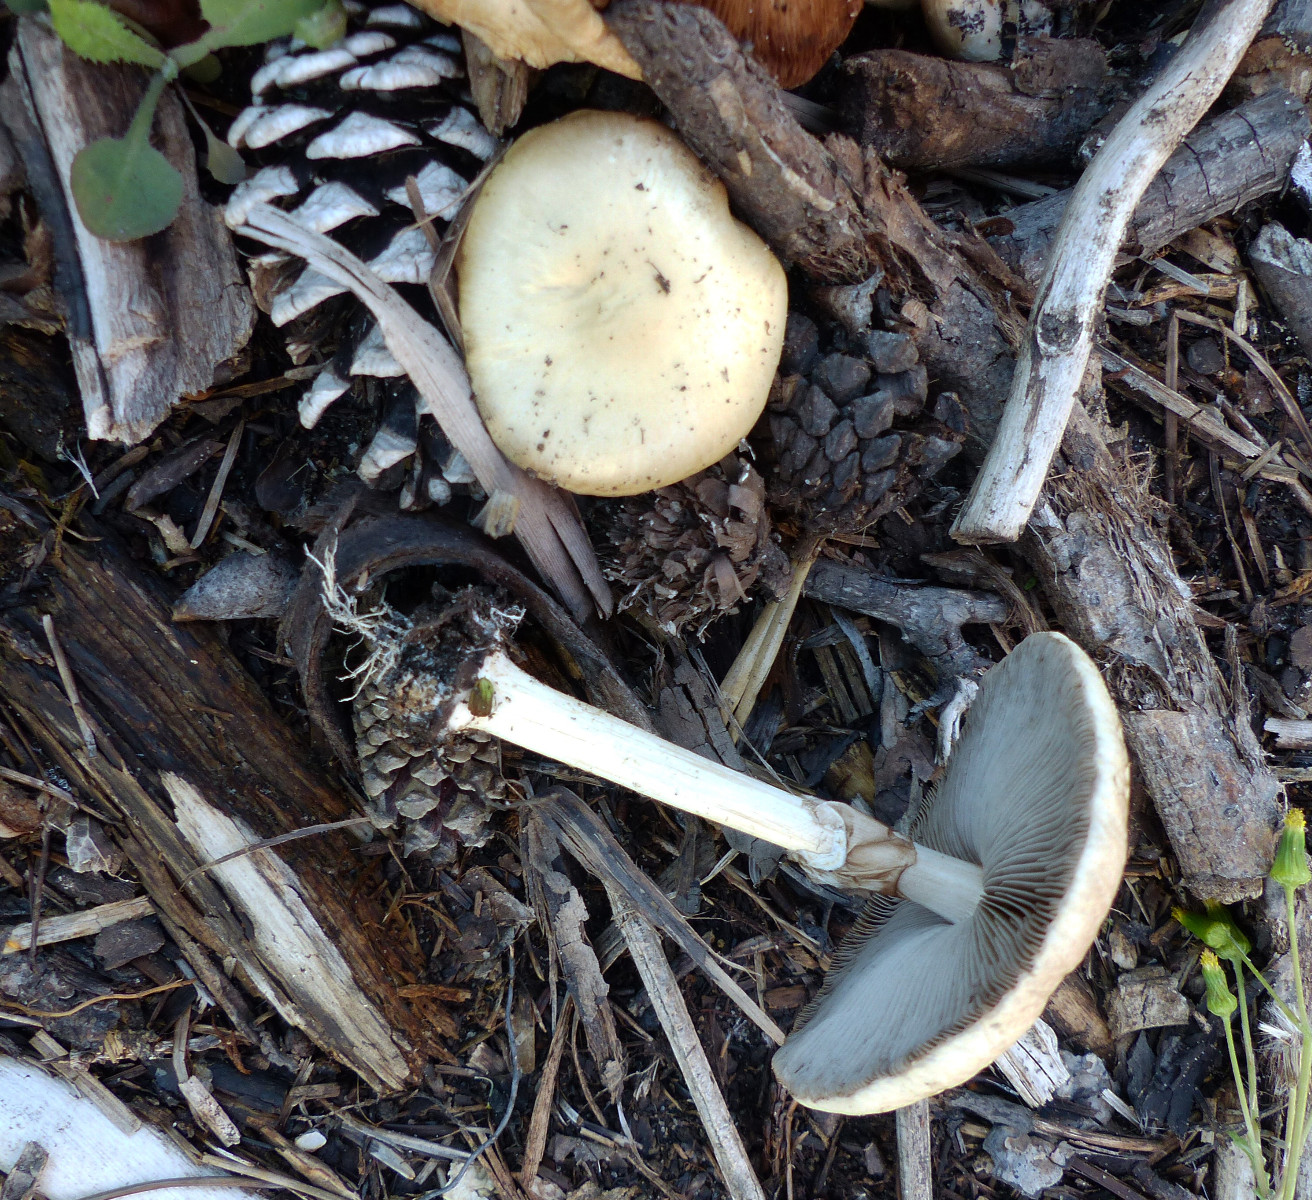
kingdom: Fungi
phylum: Basidiomycota
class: Agaricomycetes
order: Agaricales
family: Strophariaceae
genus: Agrocybe
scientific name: Agrocybe rivulosa
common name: året agerhat
